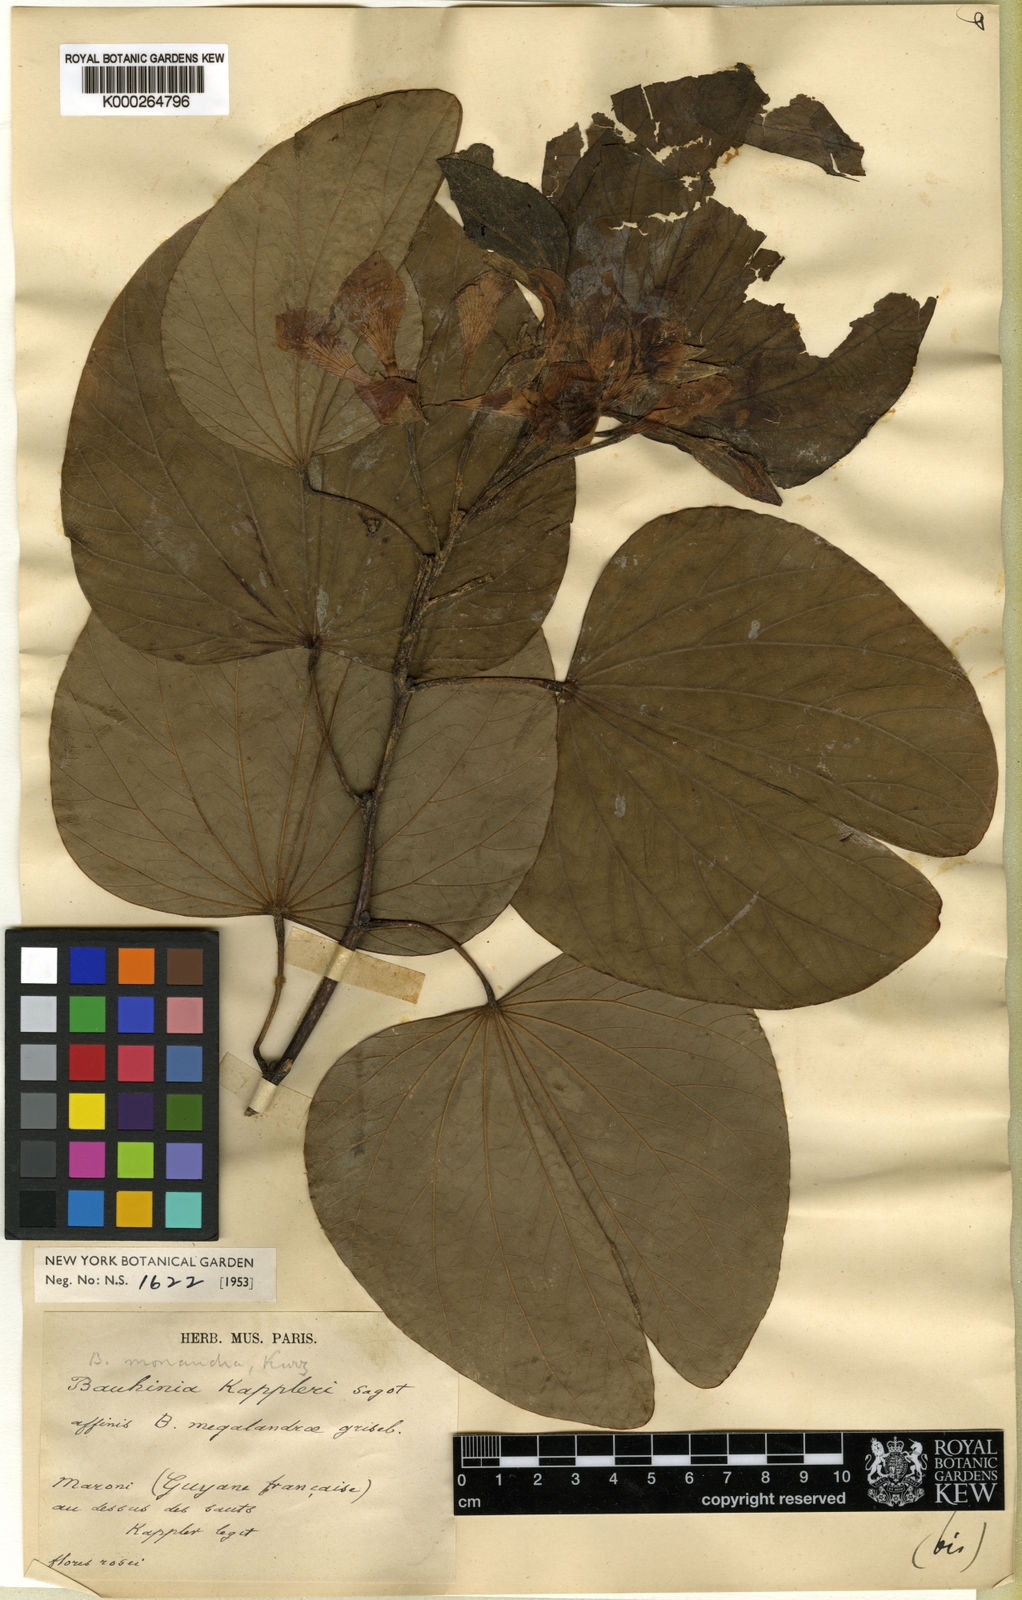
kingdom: Plantae
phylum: Tracheophyta
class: Magnoliopsida
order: Fabales
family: Fabaceae
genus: Bauhinia
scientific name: Bauhinia monandra
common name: Napoleon's plume
